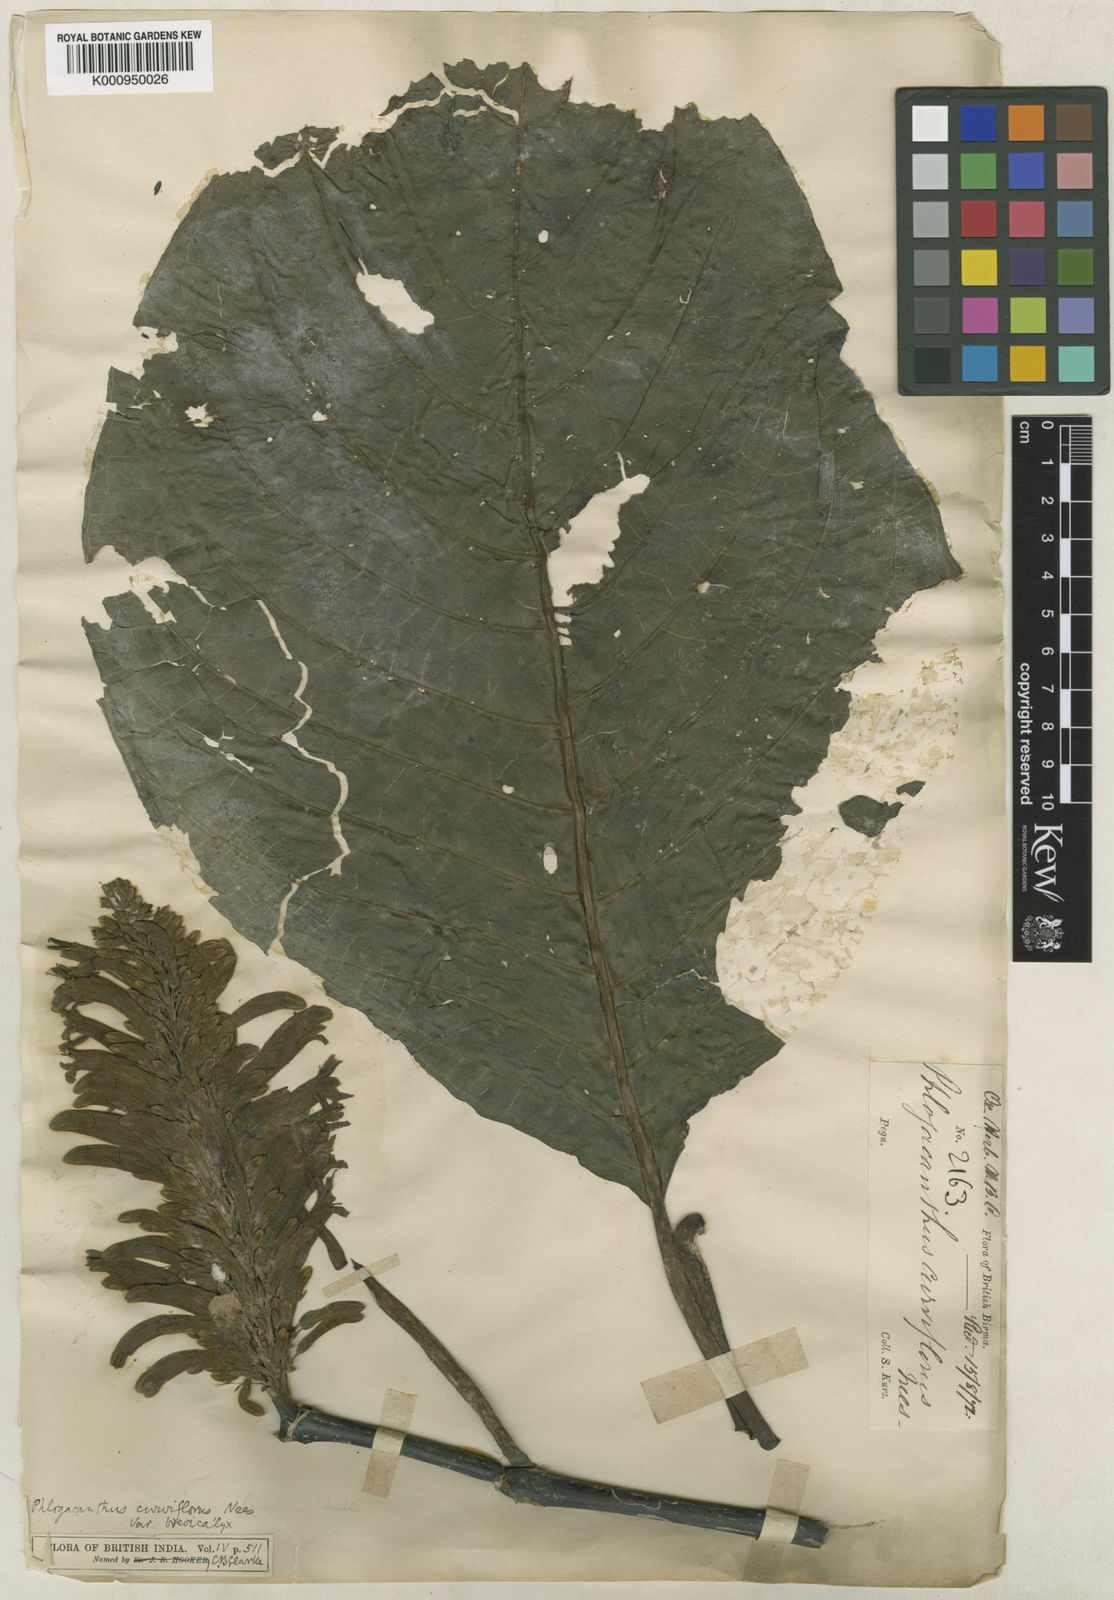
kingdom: Plantae
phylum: Tracheophyta
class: Magnoliopsida
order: Lamiales
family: Acanthaceae
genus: Phlogacanthus
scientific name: Phlogacanthus curviflorus
